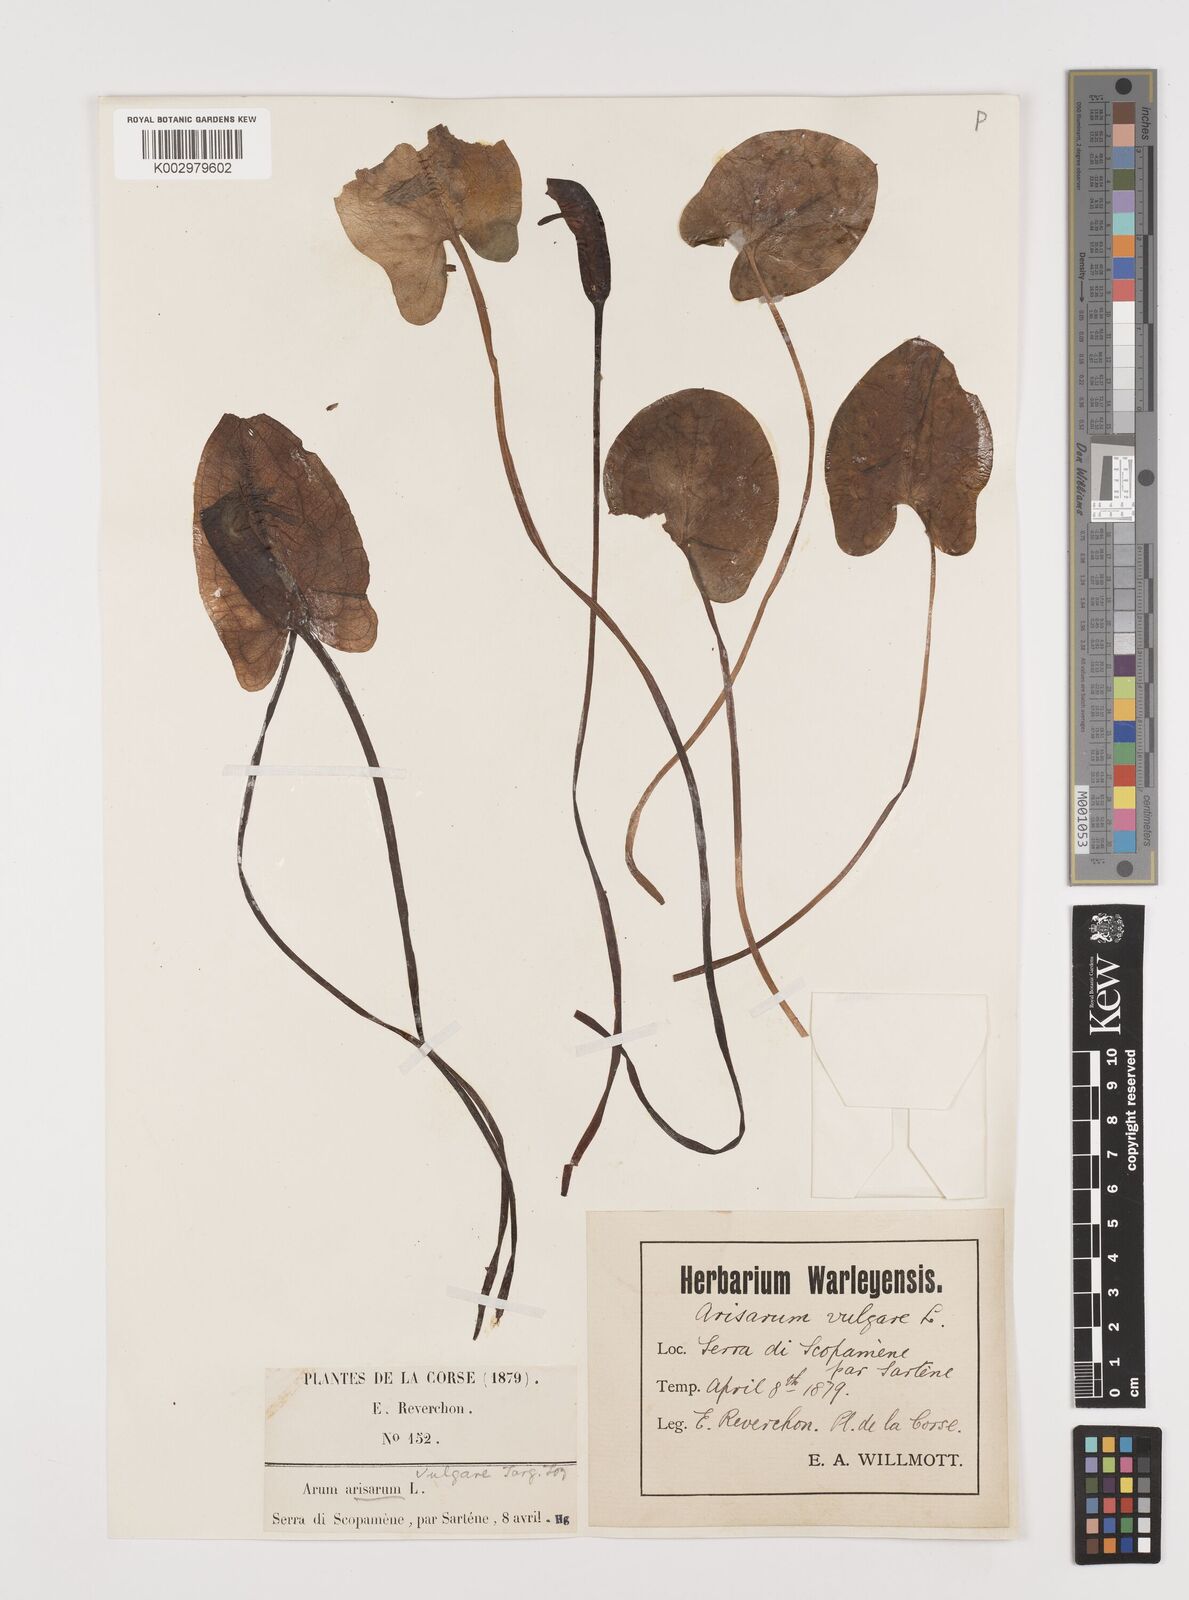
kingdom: Plantae
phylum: Tracheophyta
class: Liliopsida
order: Alismatales
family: Araceae
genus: Arisarum
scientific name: Arisarum vulgare
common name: Common arisarum
